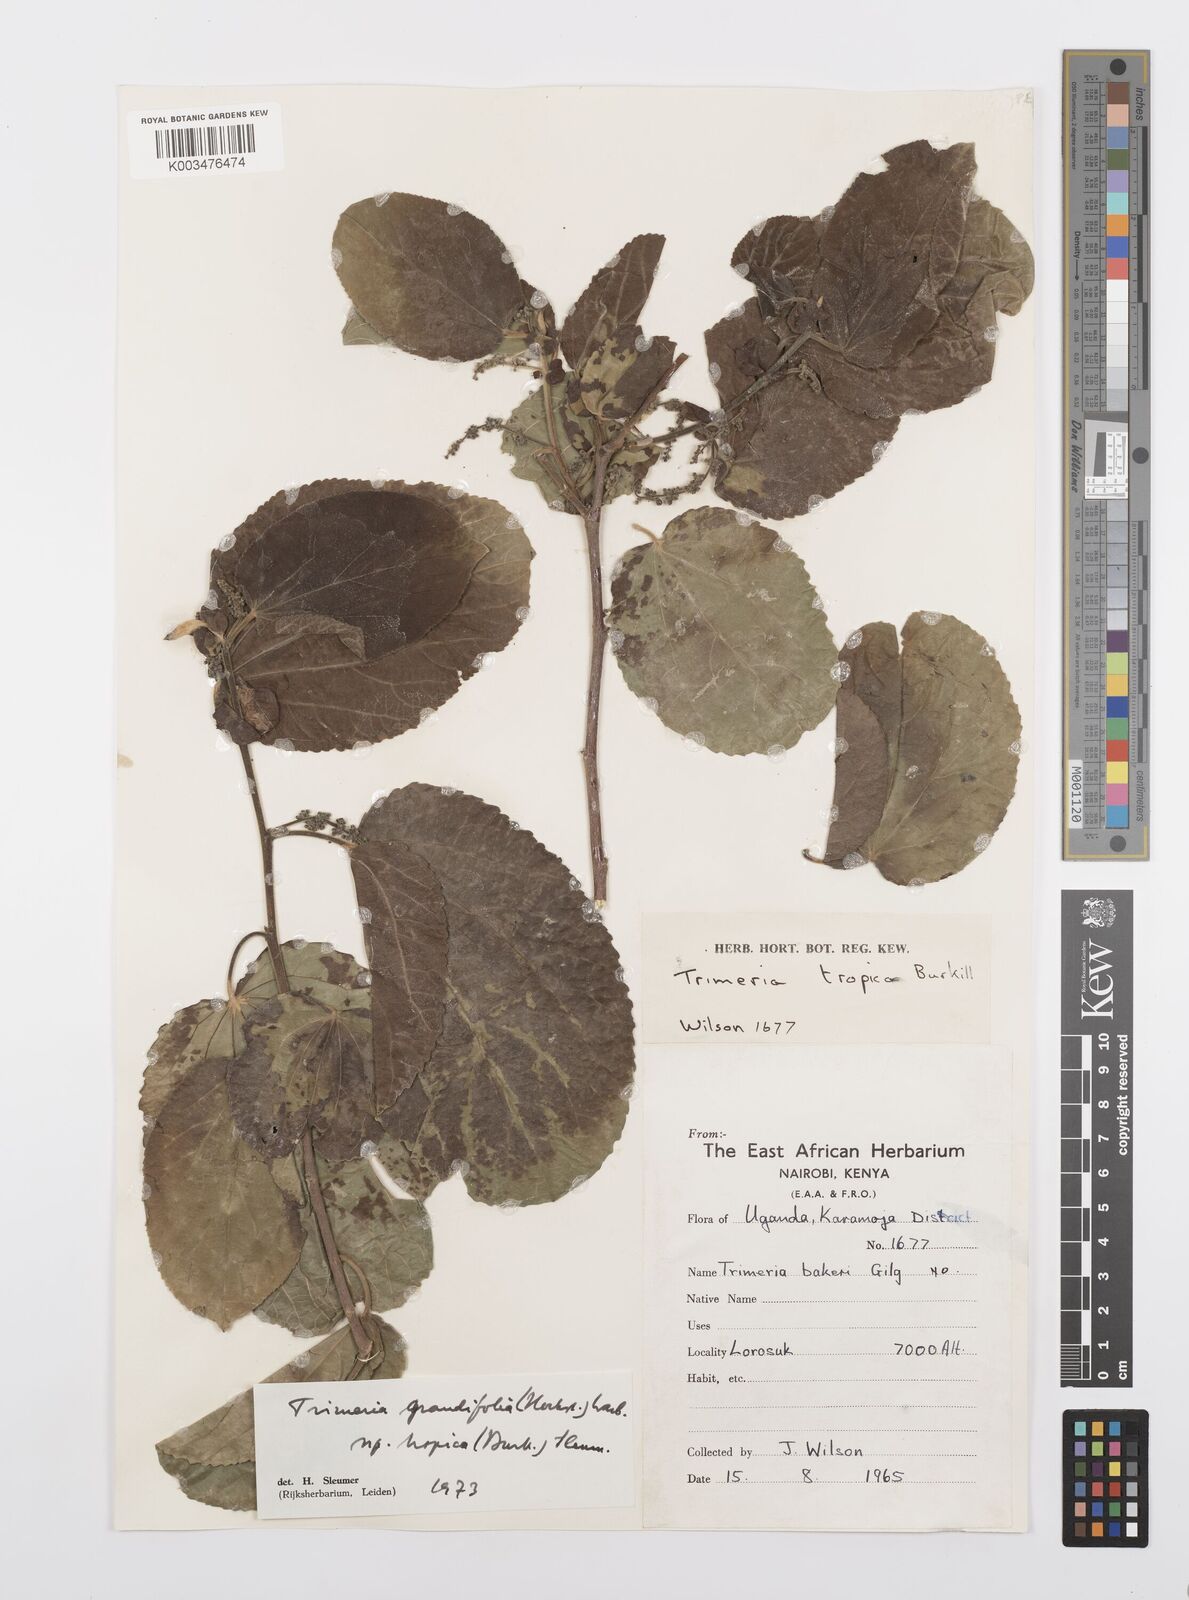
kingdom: Plantae
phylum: Tracheophyta
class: Magnoliopsida
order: Malpighiales
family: Salicaceae
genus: Trimeria
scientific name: Trimeria grandifolia
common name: Wild mulberry
